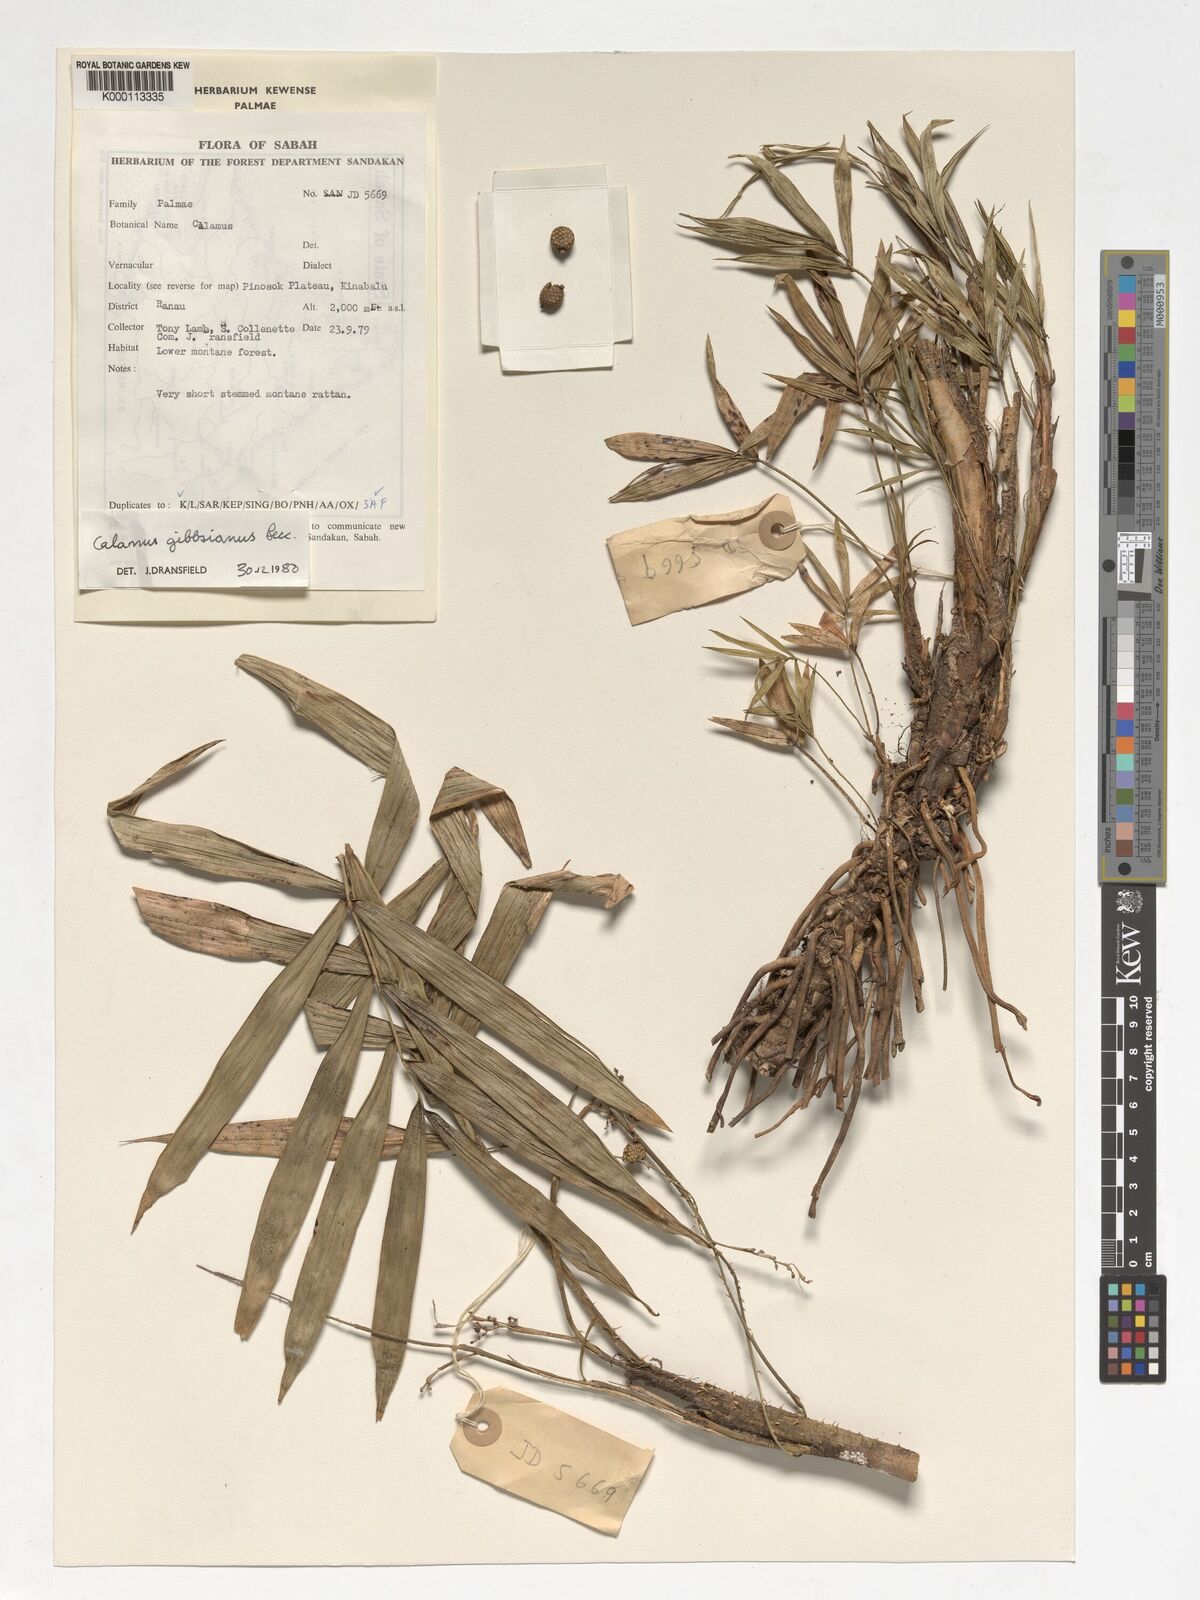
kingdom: Plantae
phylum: Tracheophyta
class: Liliopsida
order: Arecales
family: Arecaceae
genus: Calamus
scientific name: Calamus gibbsianus
